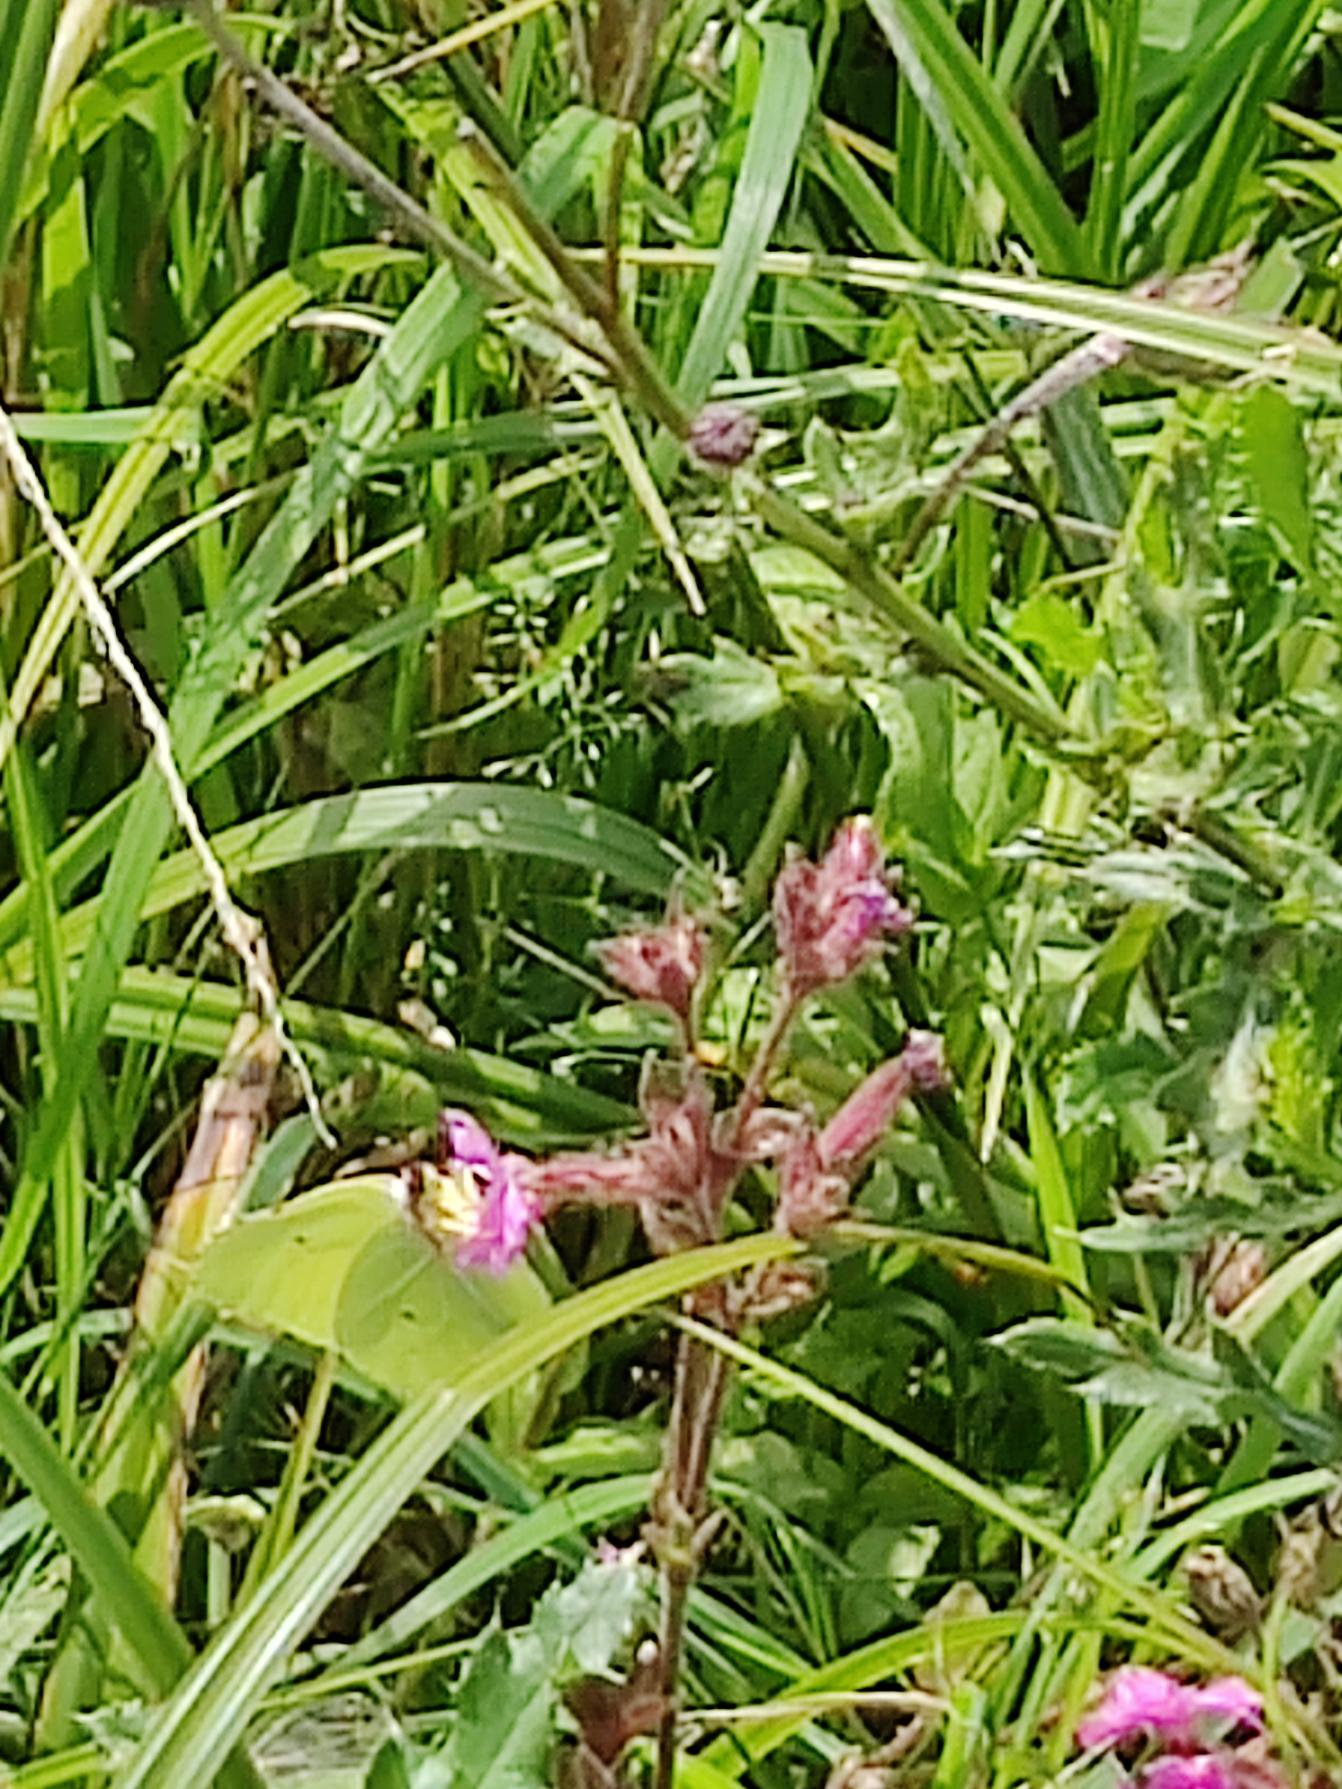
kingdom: Animalia
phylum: Arthropoda
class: Insecta
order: Lepidoptera
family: Pieridae
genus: Gonepteryx
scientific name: Gonepteryx rhamni
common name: Citronsommerfugl
